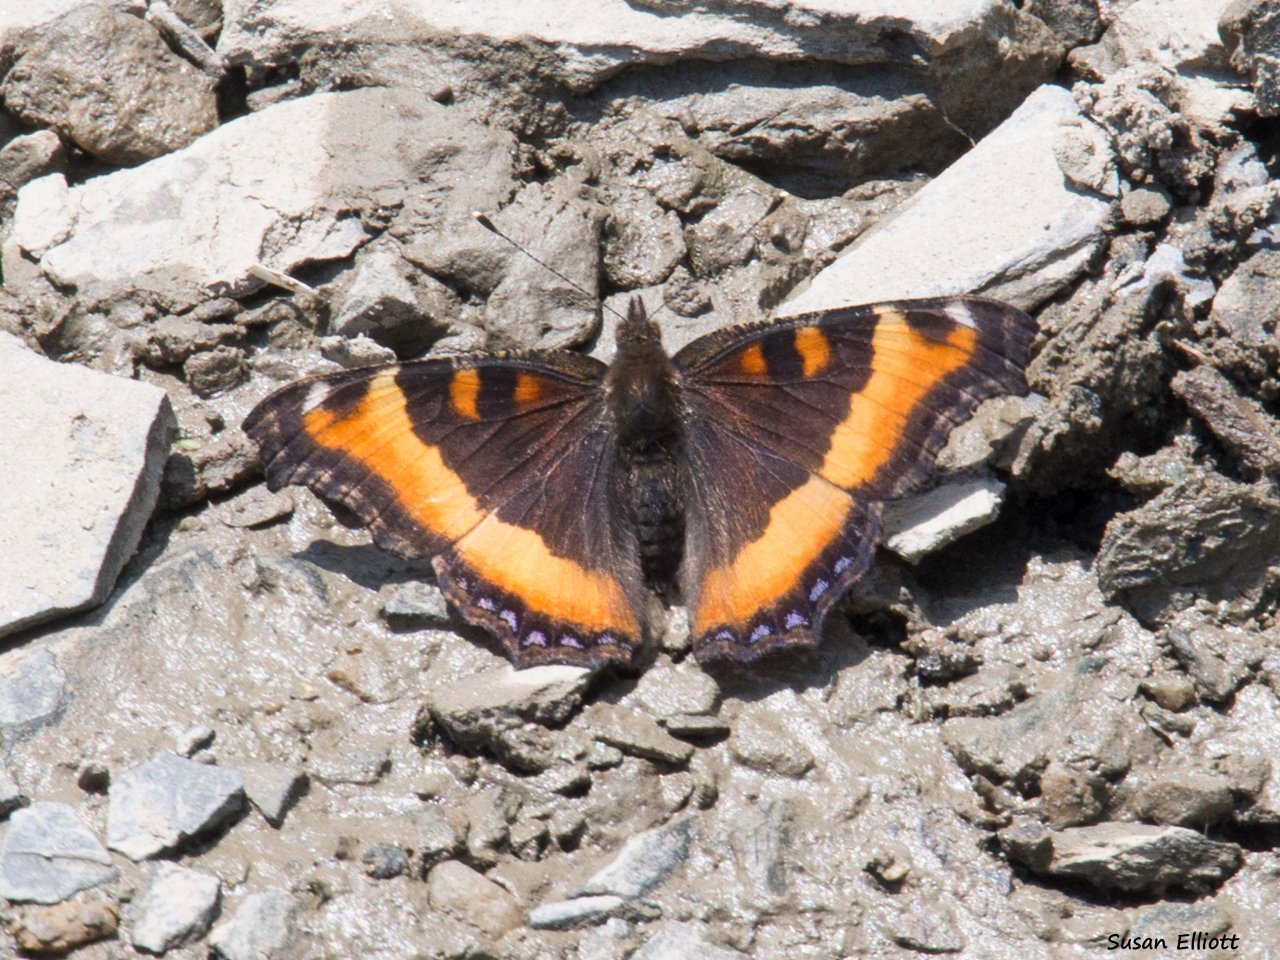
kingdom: Animalia
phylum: Arthropoda
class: Insecta
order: Lepidoptera
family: Nymphalidae
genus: Aglais
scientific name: Aglais milberti
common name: Milbert's Tortoiseshell
